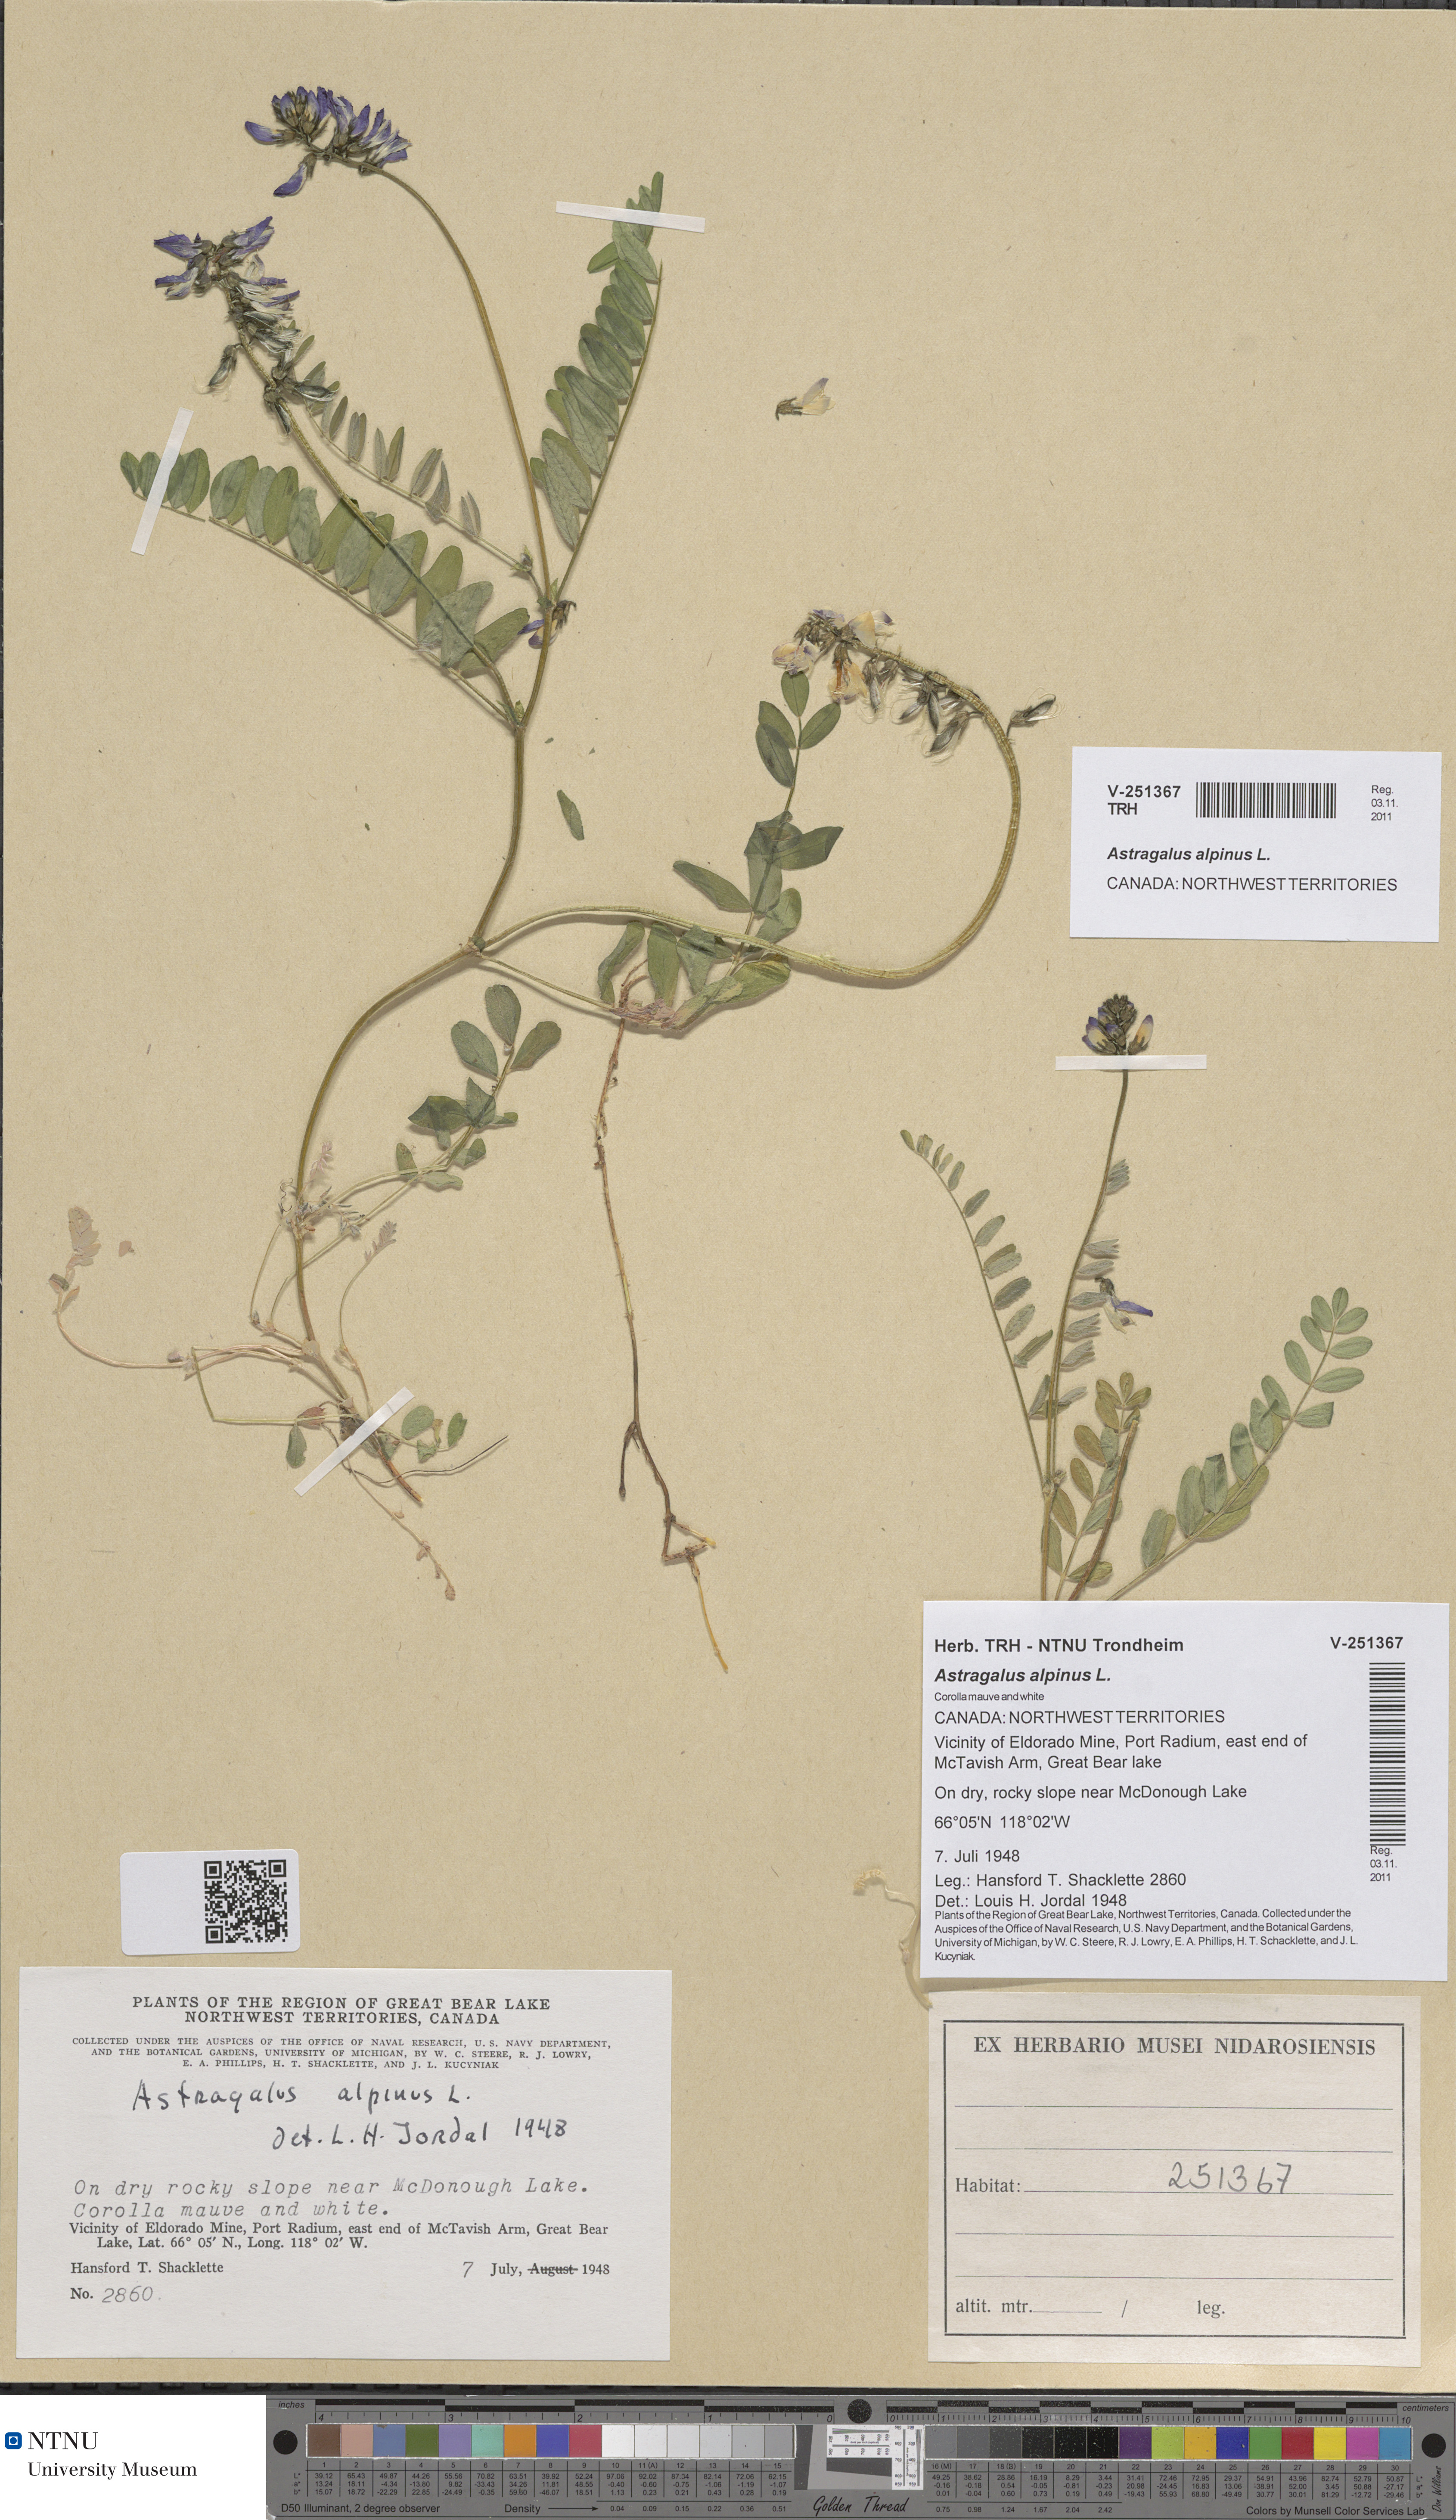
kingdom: Plantae
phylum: Tracheophyta
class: Magnoliopsida
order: Fabales
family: Fabaceae
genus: Astragalus
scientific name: Astragalus alpinus
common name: Alpine milk-vetch
